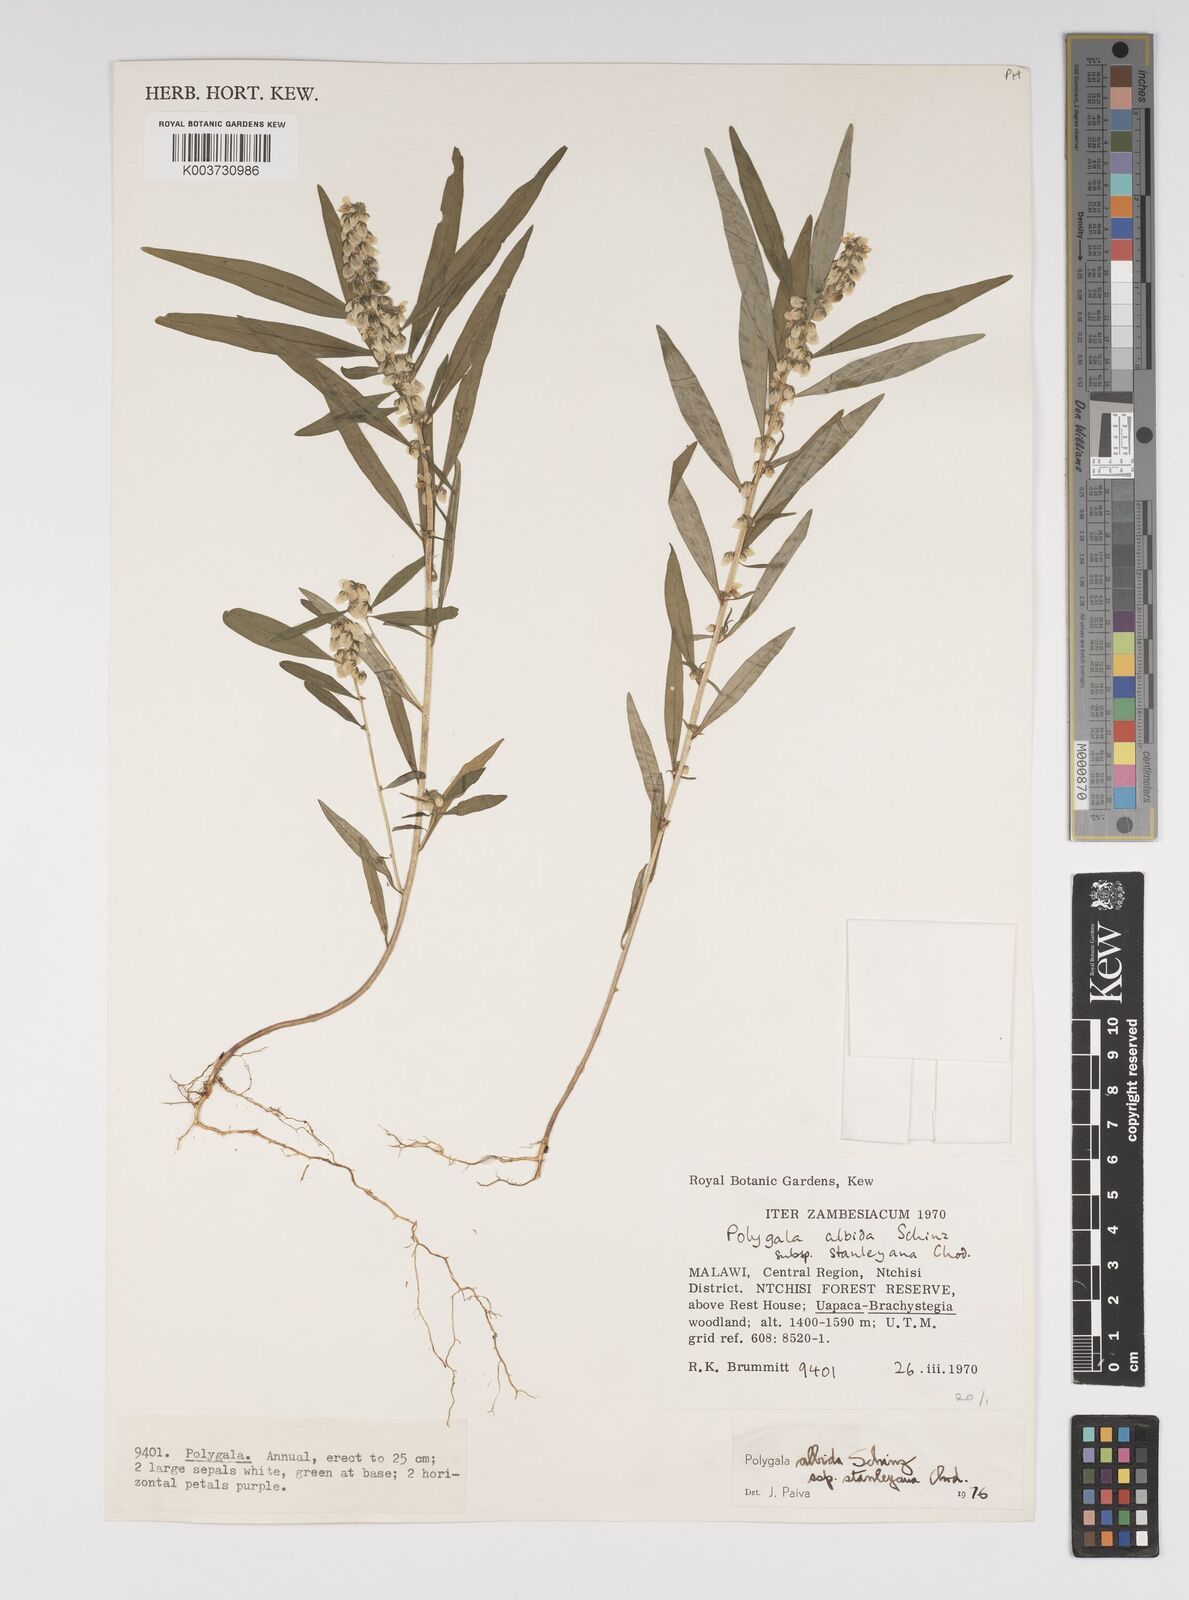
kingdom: Plantae
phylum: Tracheophyta
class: Magnoliopsida
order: Fabales
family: Polygalaceae
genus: Polygala
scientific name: Polygala albida
